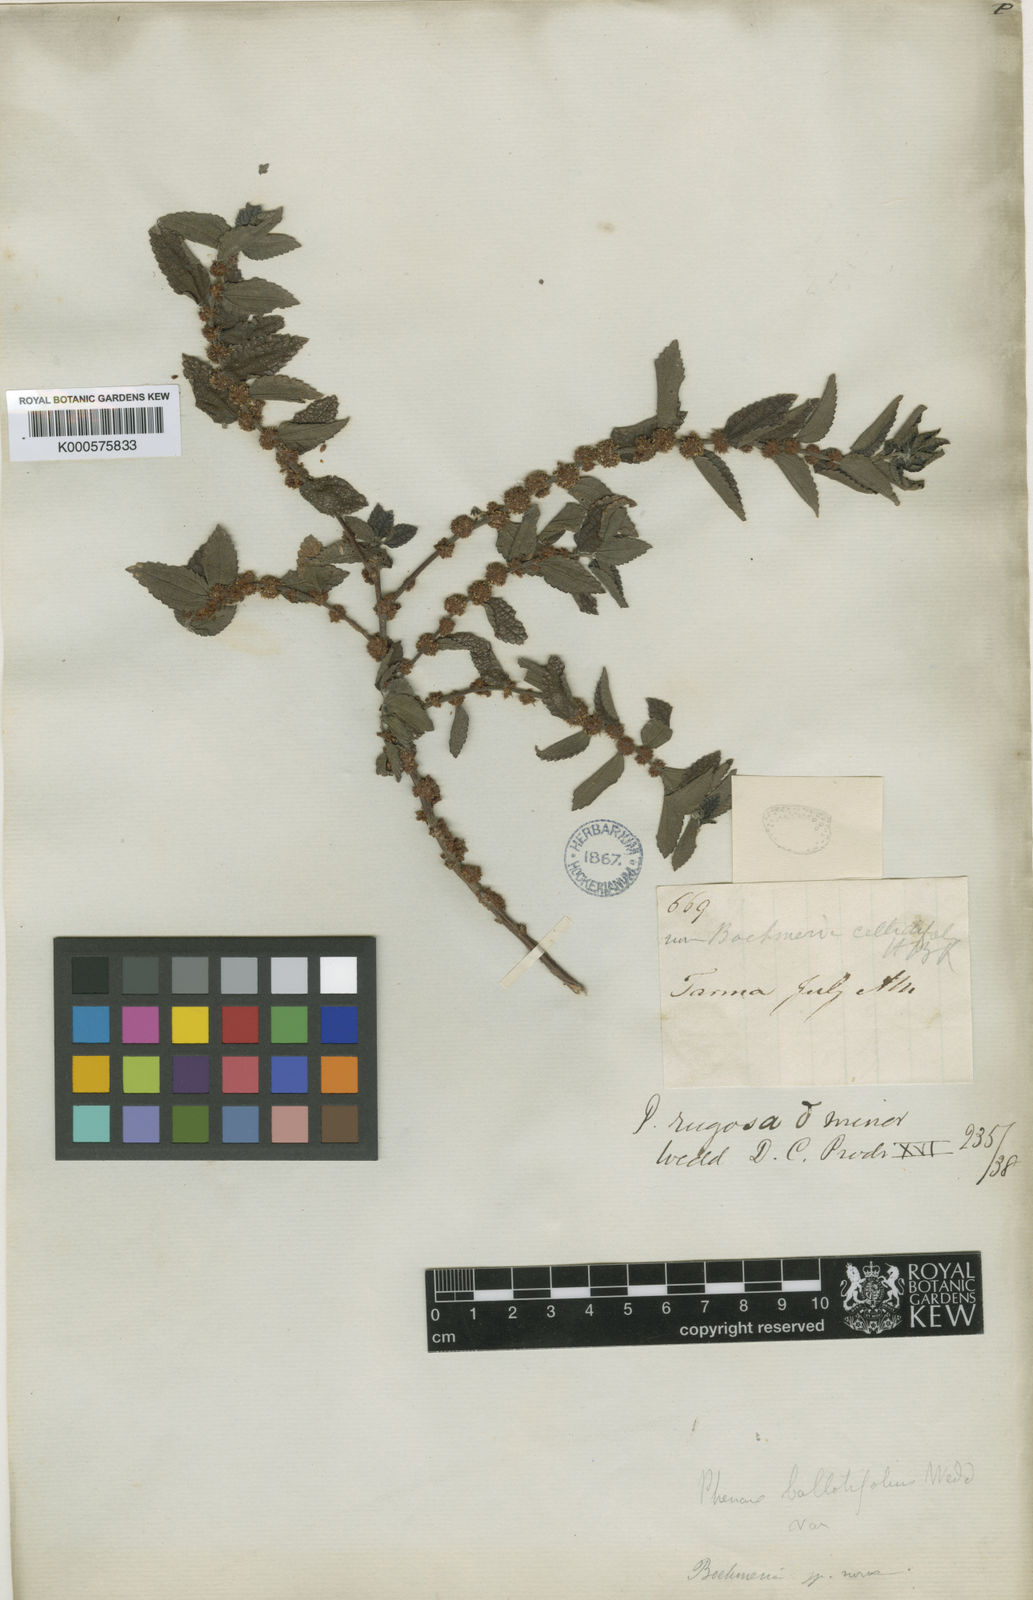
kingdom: Plantae
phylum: Tracheophyta
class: Magnoliopsida
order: Rosales
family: Urticaceae
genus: Phenax
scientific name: Phenax rugosus
